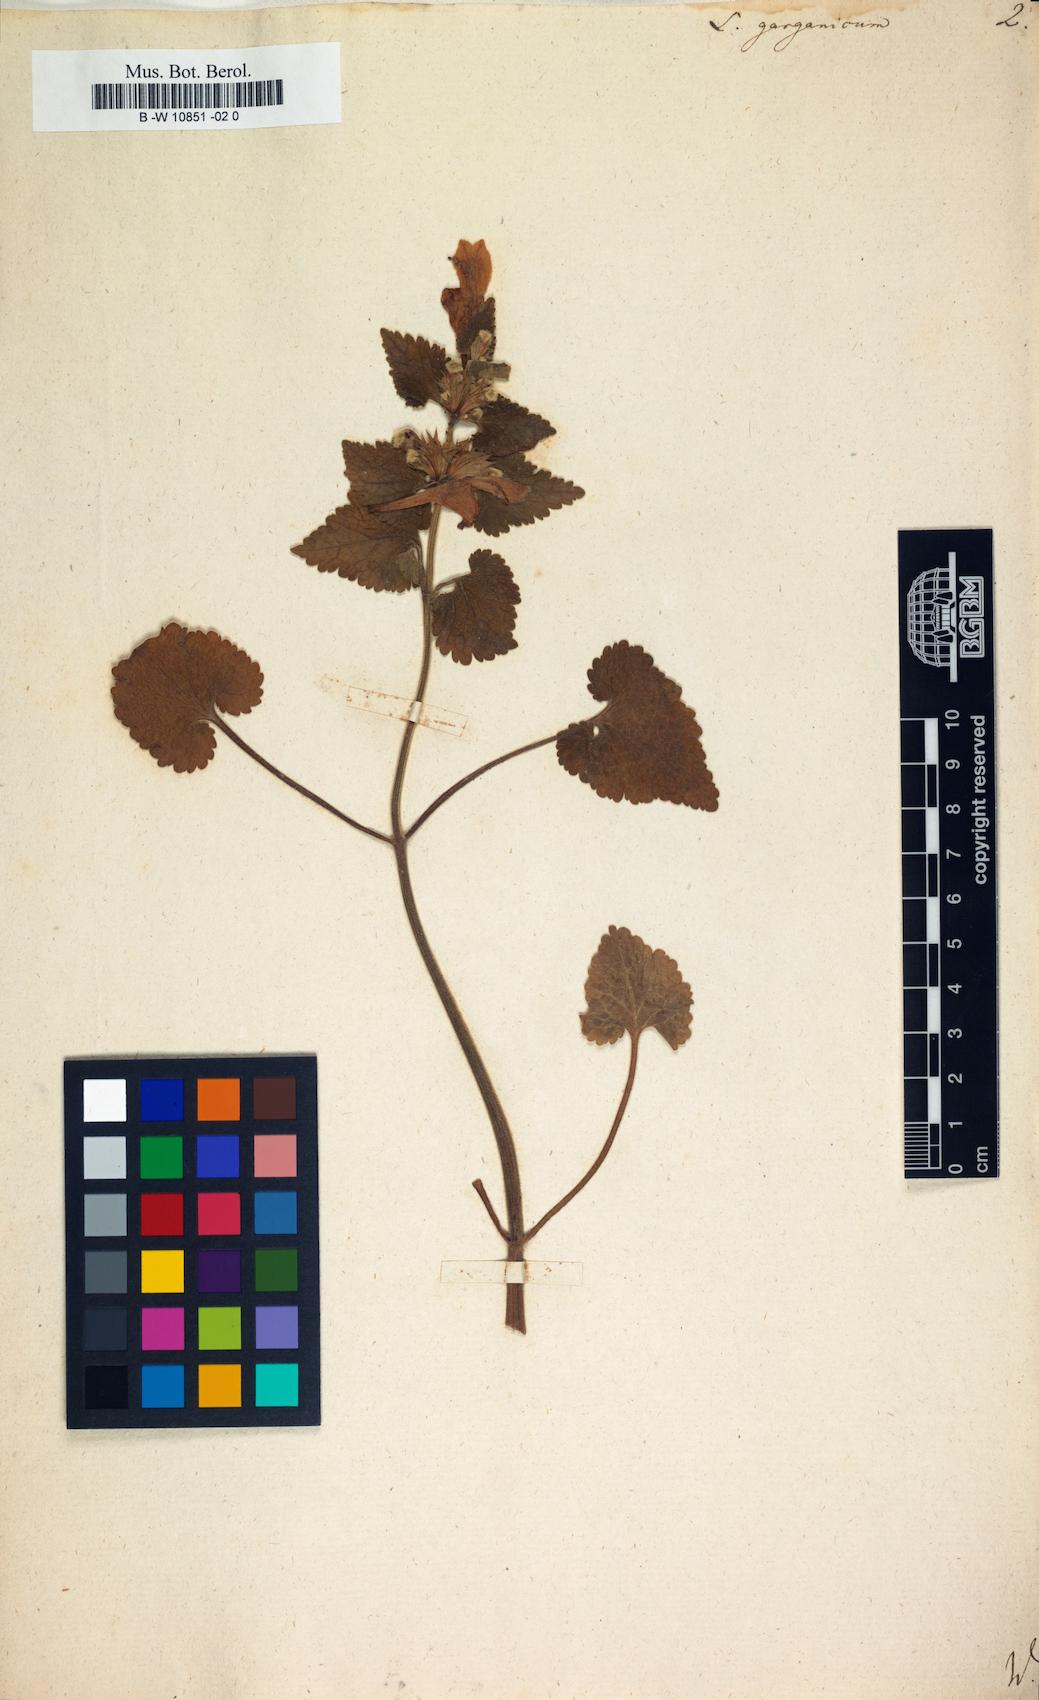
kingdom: Plantae
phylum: Tracheophyta
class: Magnoliopsida
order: Lamiales
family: Lamiaceae
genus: Lamium
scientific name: Lamium garganicum
